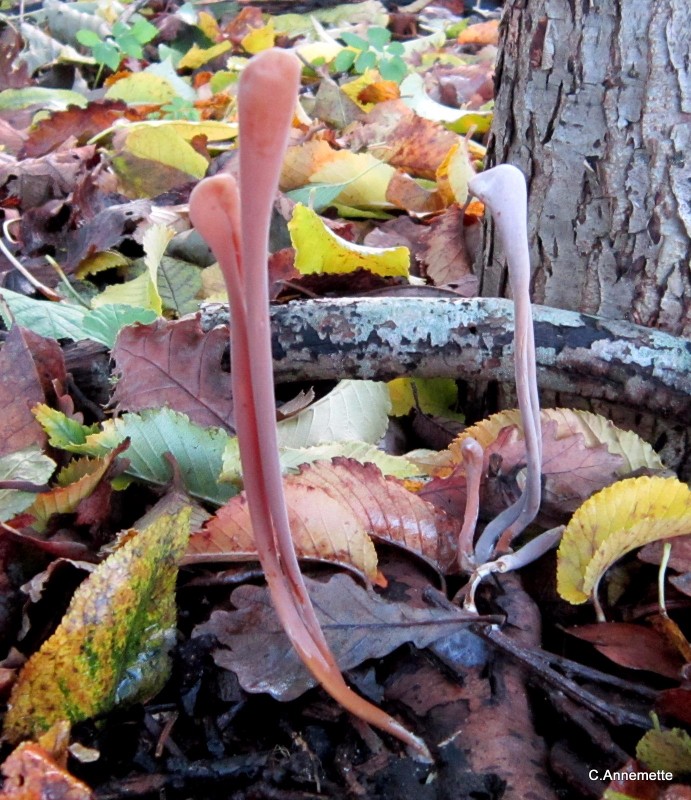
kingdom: Fungi
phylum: Basidiomycota
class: Agaricomycetes
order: Agaricales
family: Typhulaceae
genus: Typhula
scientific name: Typhula fistulosa
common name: pibet rørkølle
